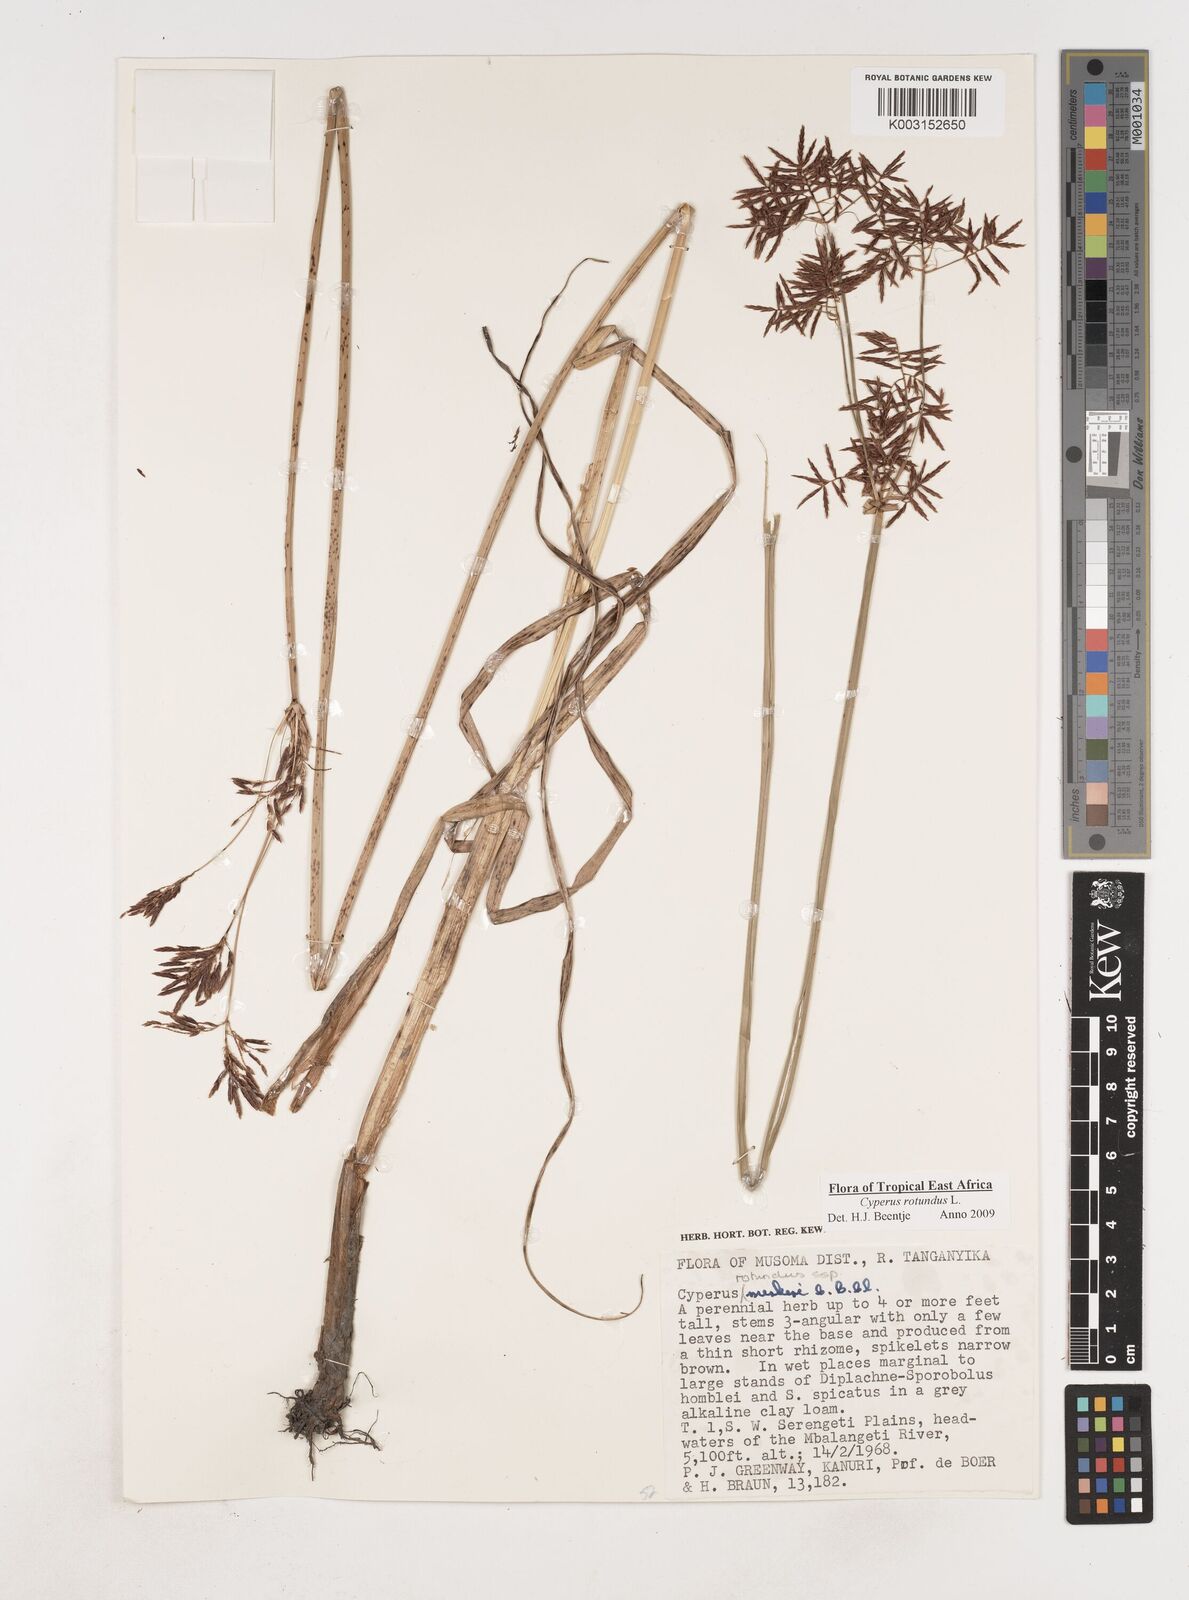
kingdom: Plantae
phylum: Tracheophyta
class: Liliopsida
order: Poales
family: Cyperaceae
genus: Cyperus
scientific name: Cyperus rotundus
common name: Nutgrass
